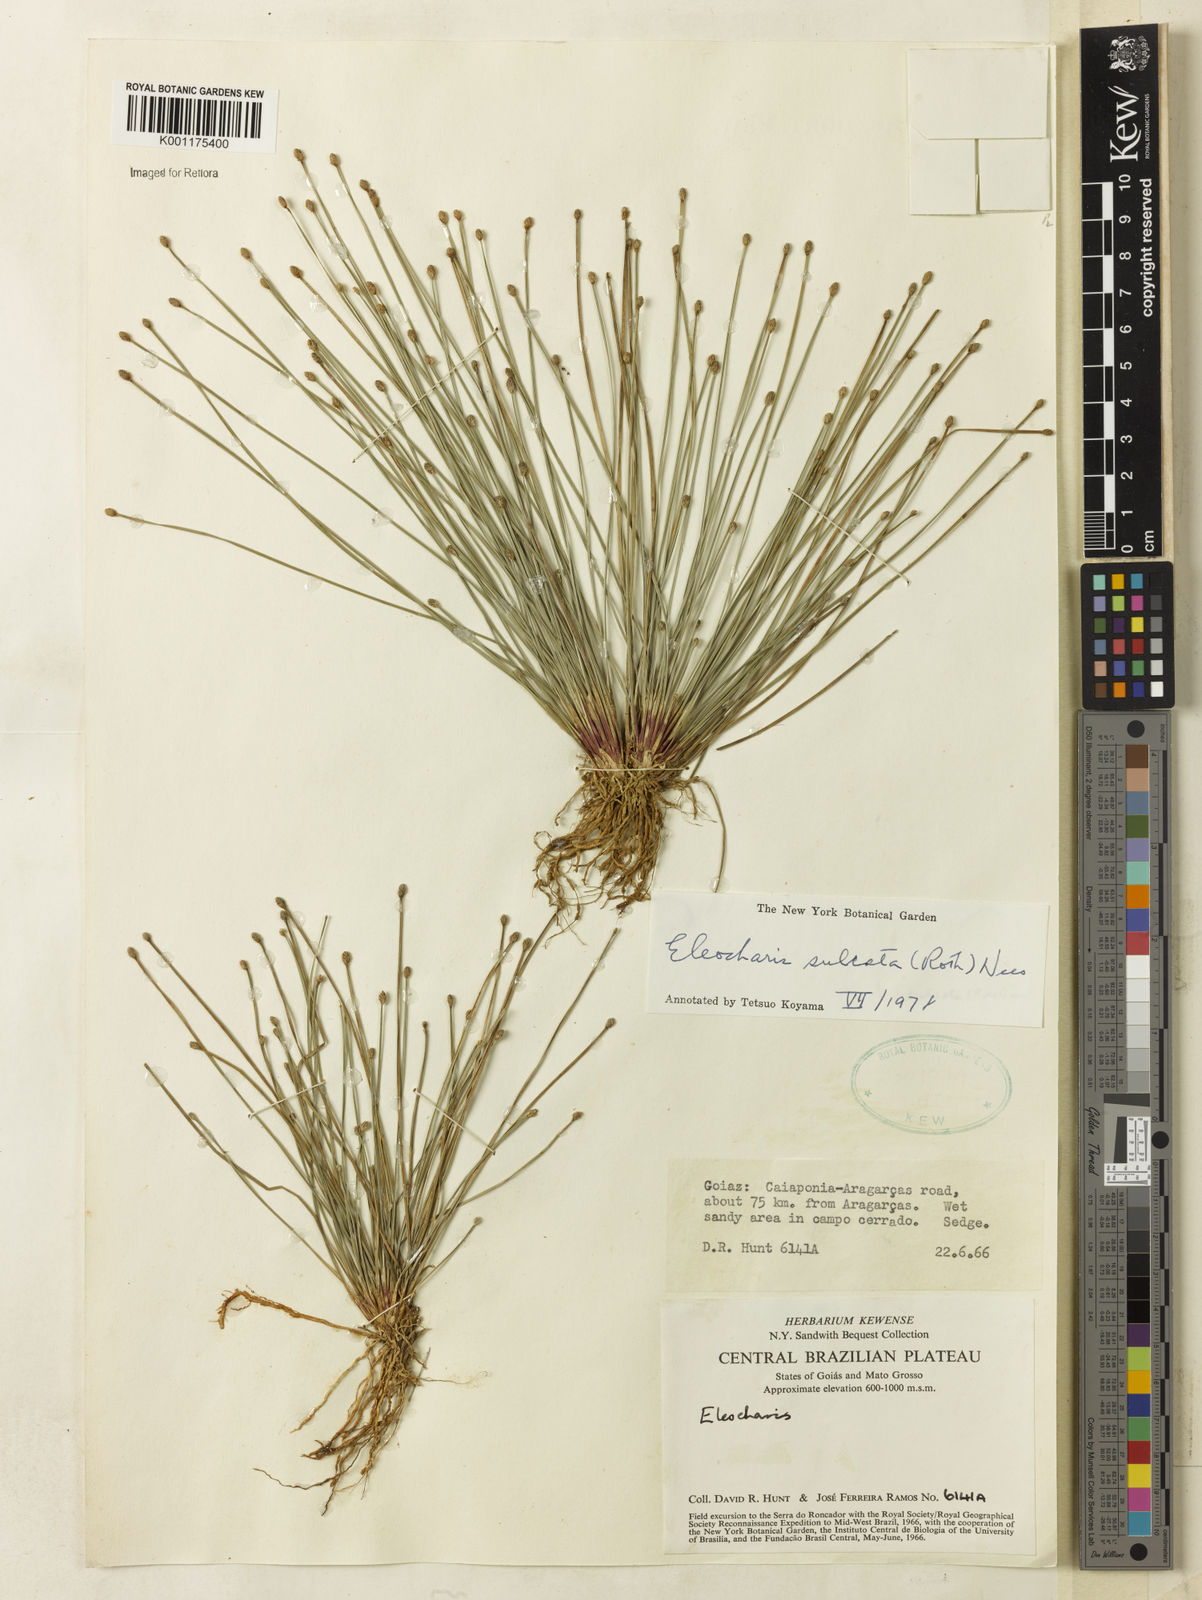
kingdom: Plantae
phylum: Tracheophyta
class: Liliopsida
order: Poales
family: Cyperaceae
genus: Eleocharis
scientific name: Eleocharis filiculmis
